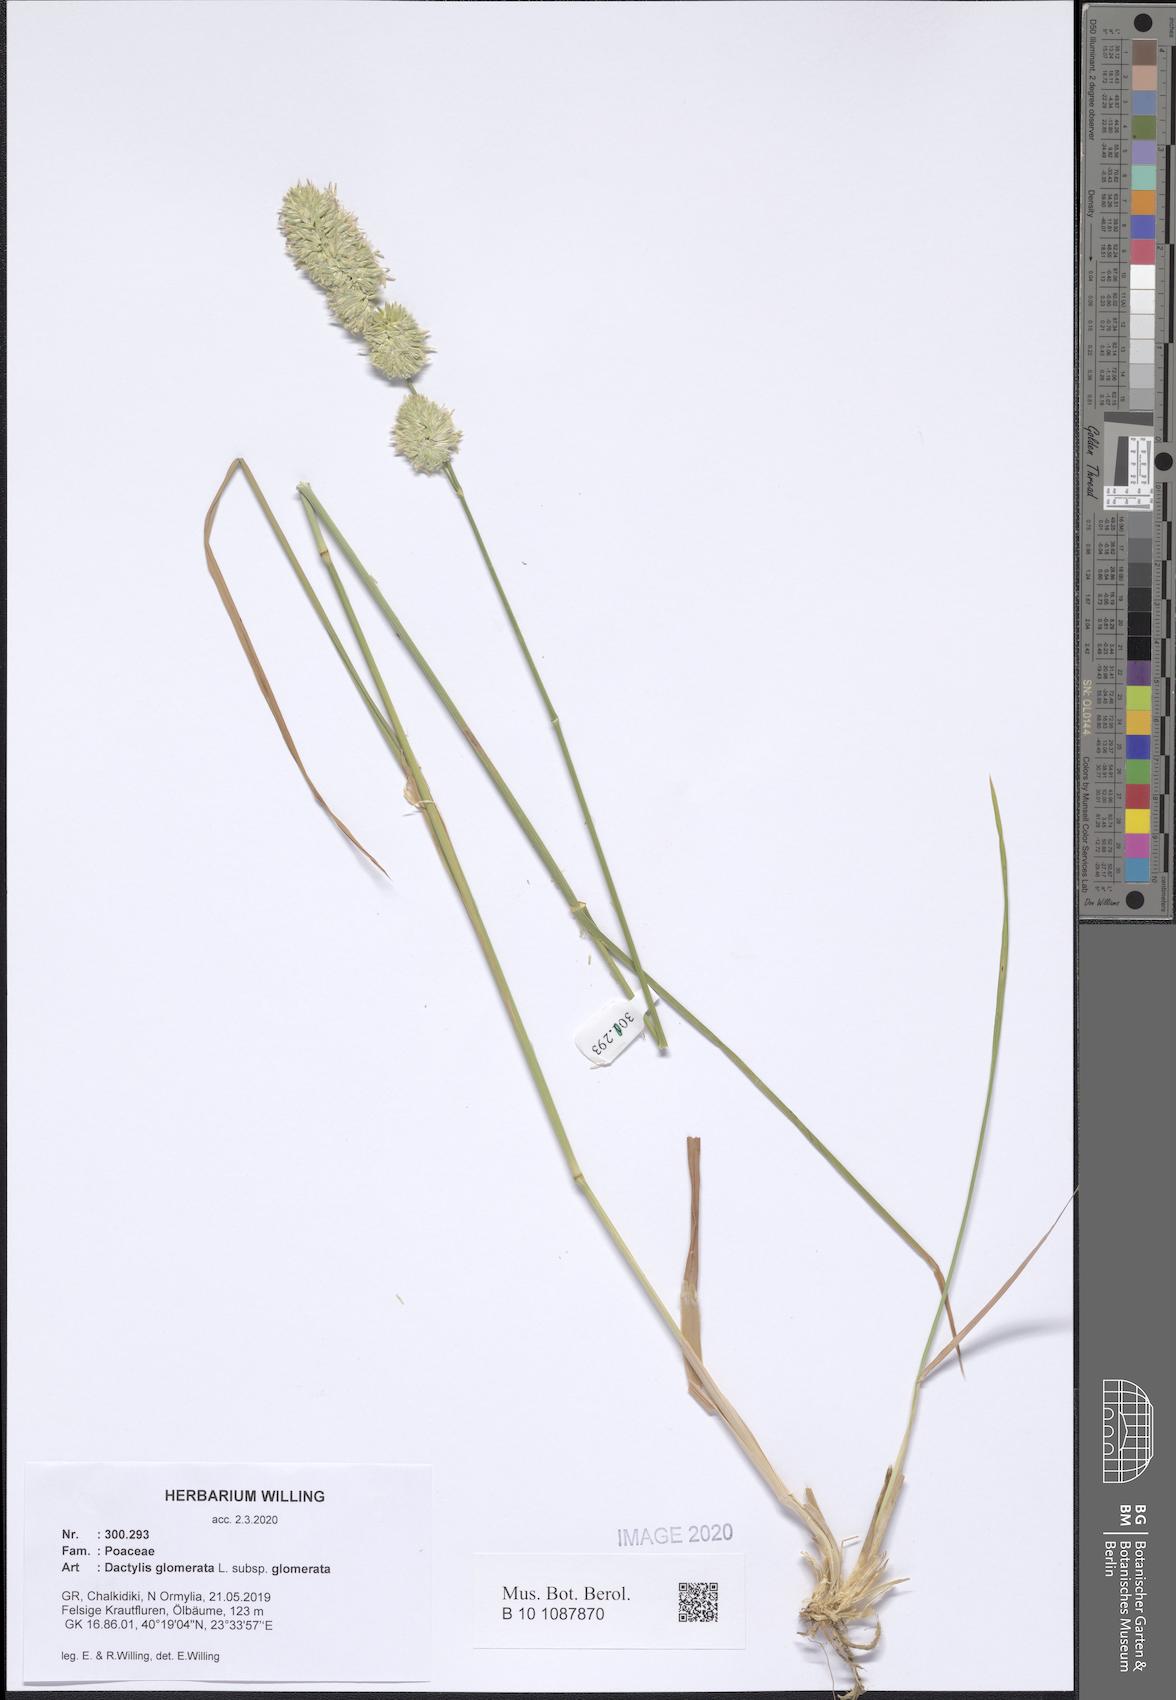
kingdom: Plantae
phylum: Tracheophyta
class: Liliopsida
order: Poales
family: Poaceae
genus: Dactylis
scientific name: Dactylis glomerata
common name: Orchardgrass
